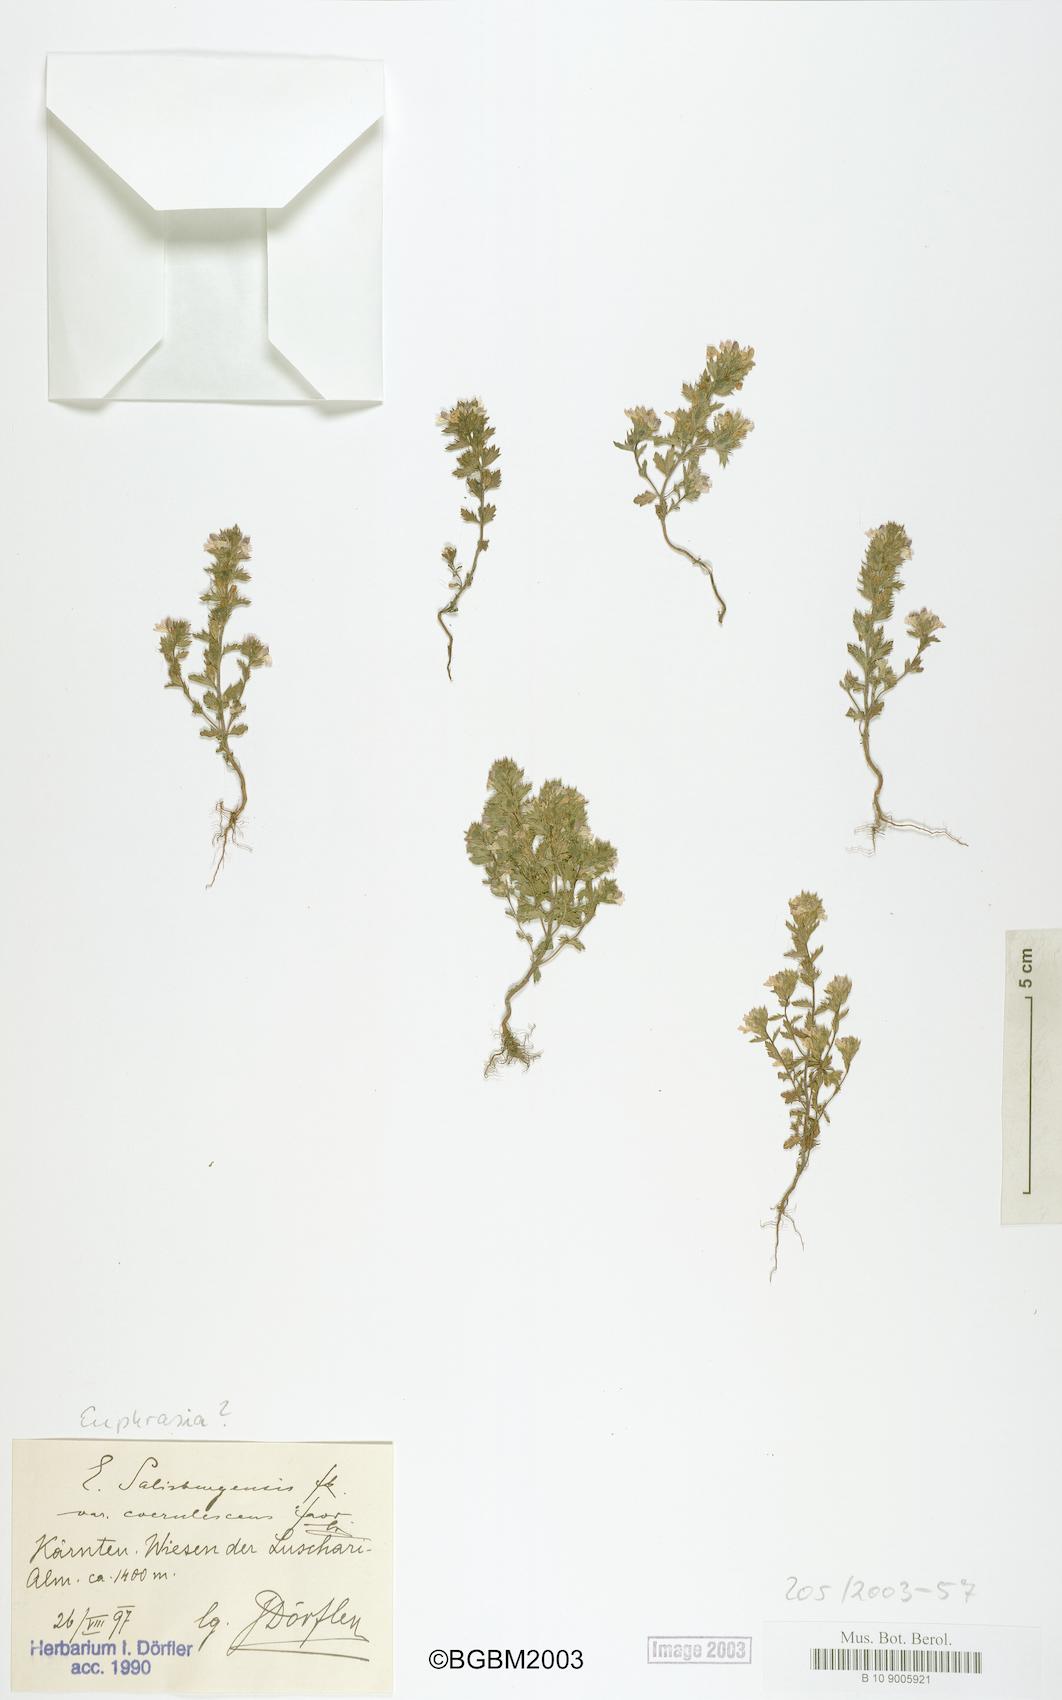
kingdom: Plantae
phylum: Tracheophyta
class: Magnoliopsida
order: Lamiales
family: Orobanchaceae
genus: Euphrasia
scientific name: Euphrasia salisburgensis
